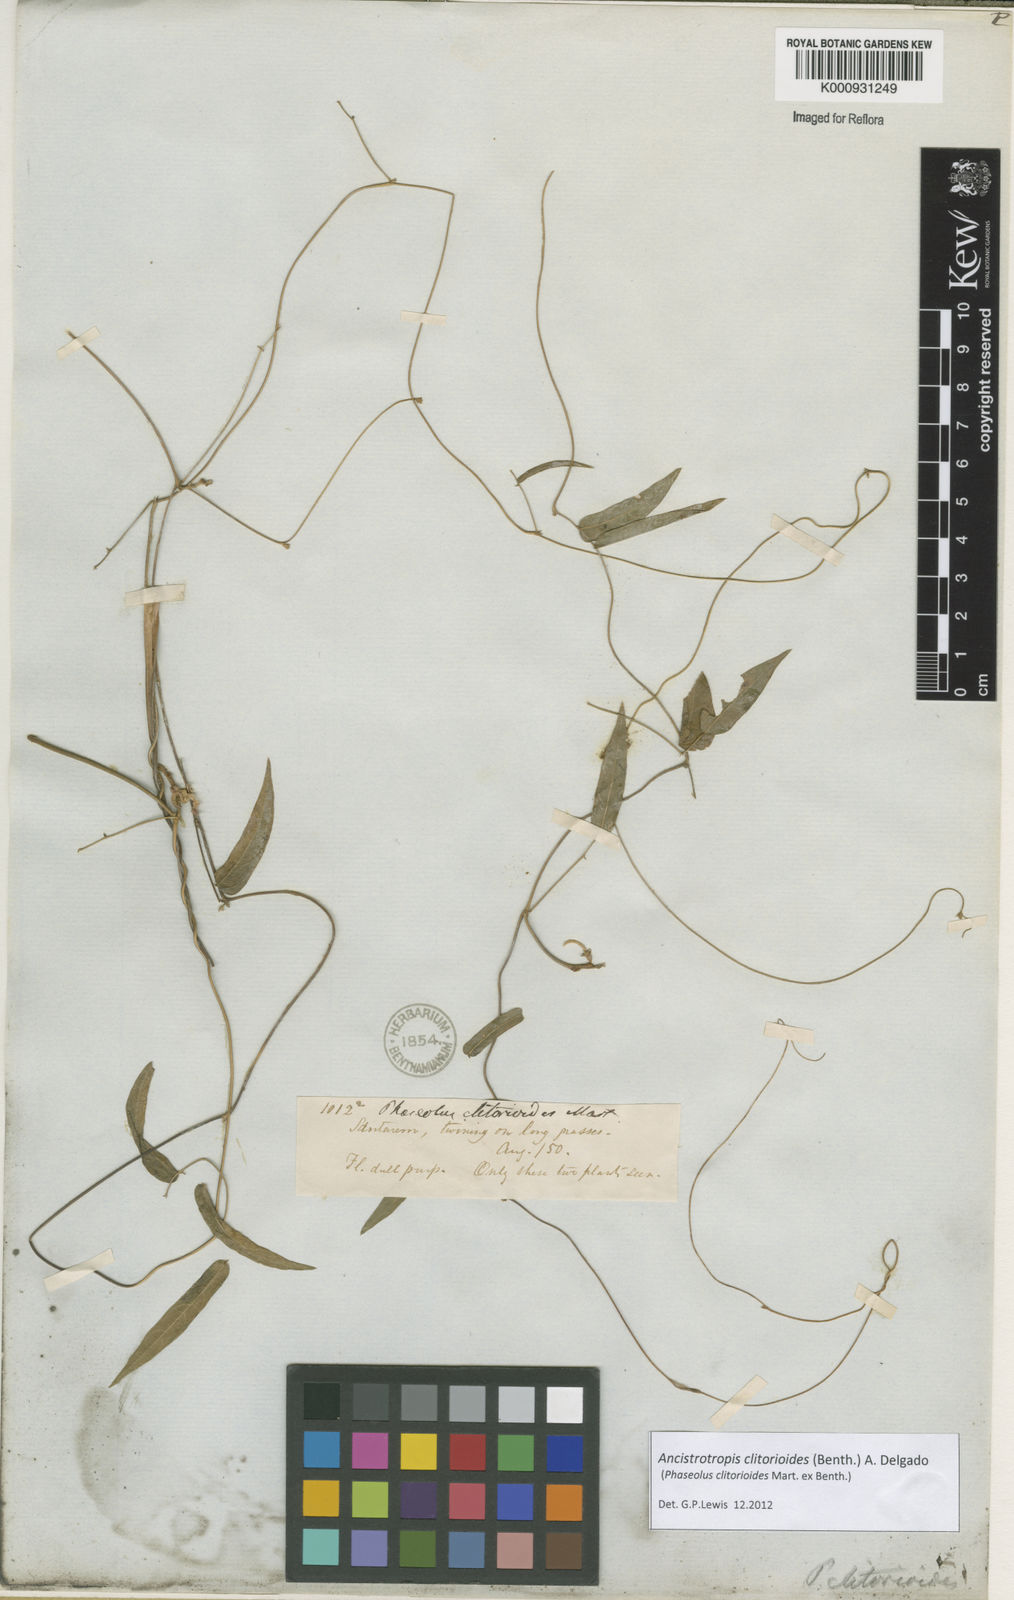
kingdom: Plantae
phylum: Tracheophyta
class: Magnoliopsida
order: Fabales
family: Fabaceae
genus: Ancistrotropis
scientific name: Ancistrotropis clitorioides
